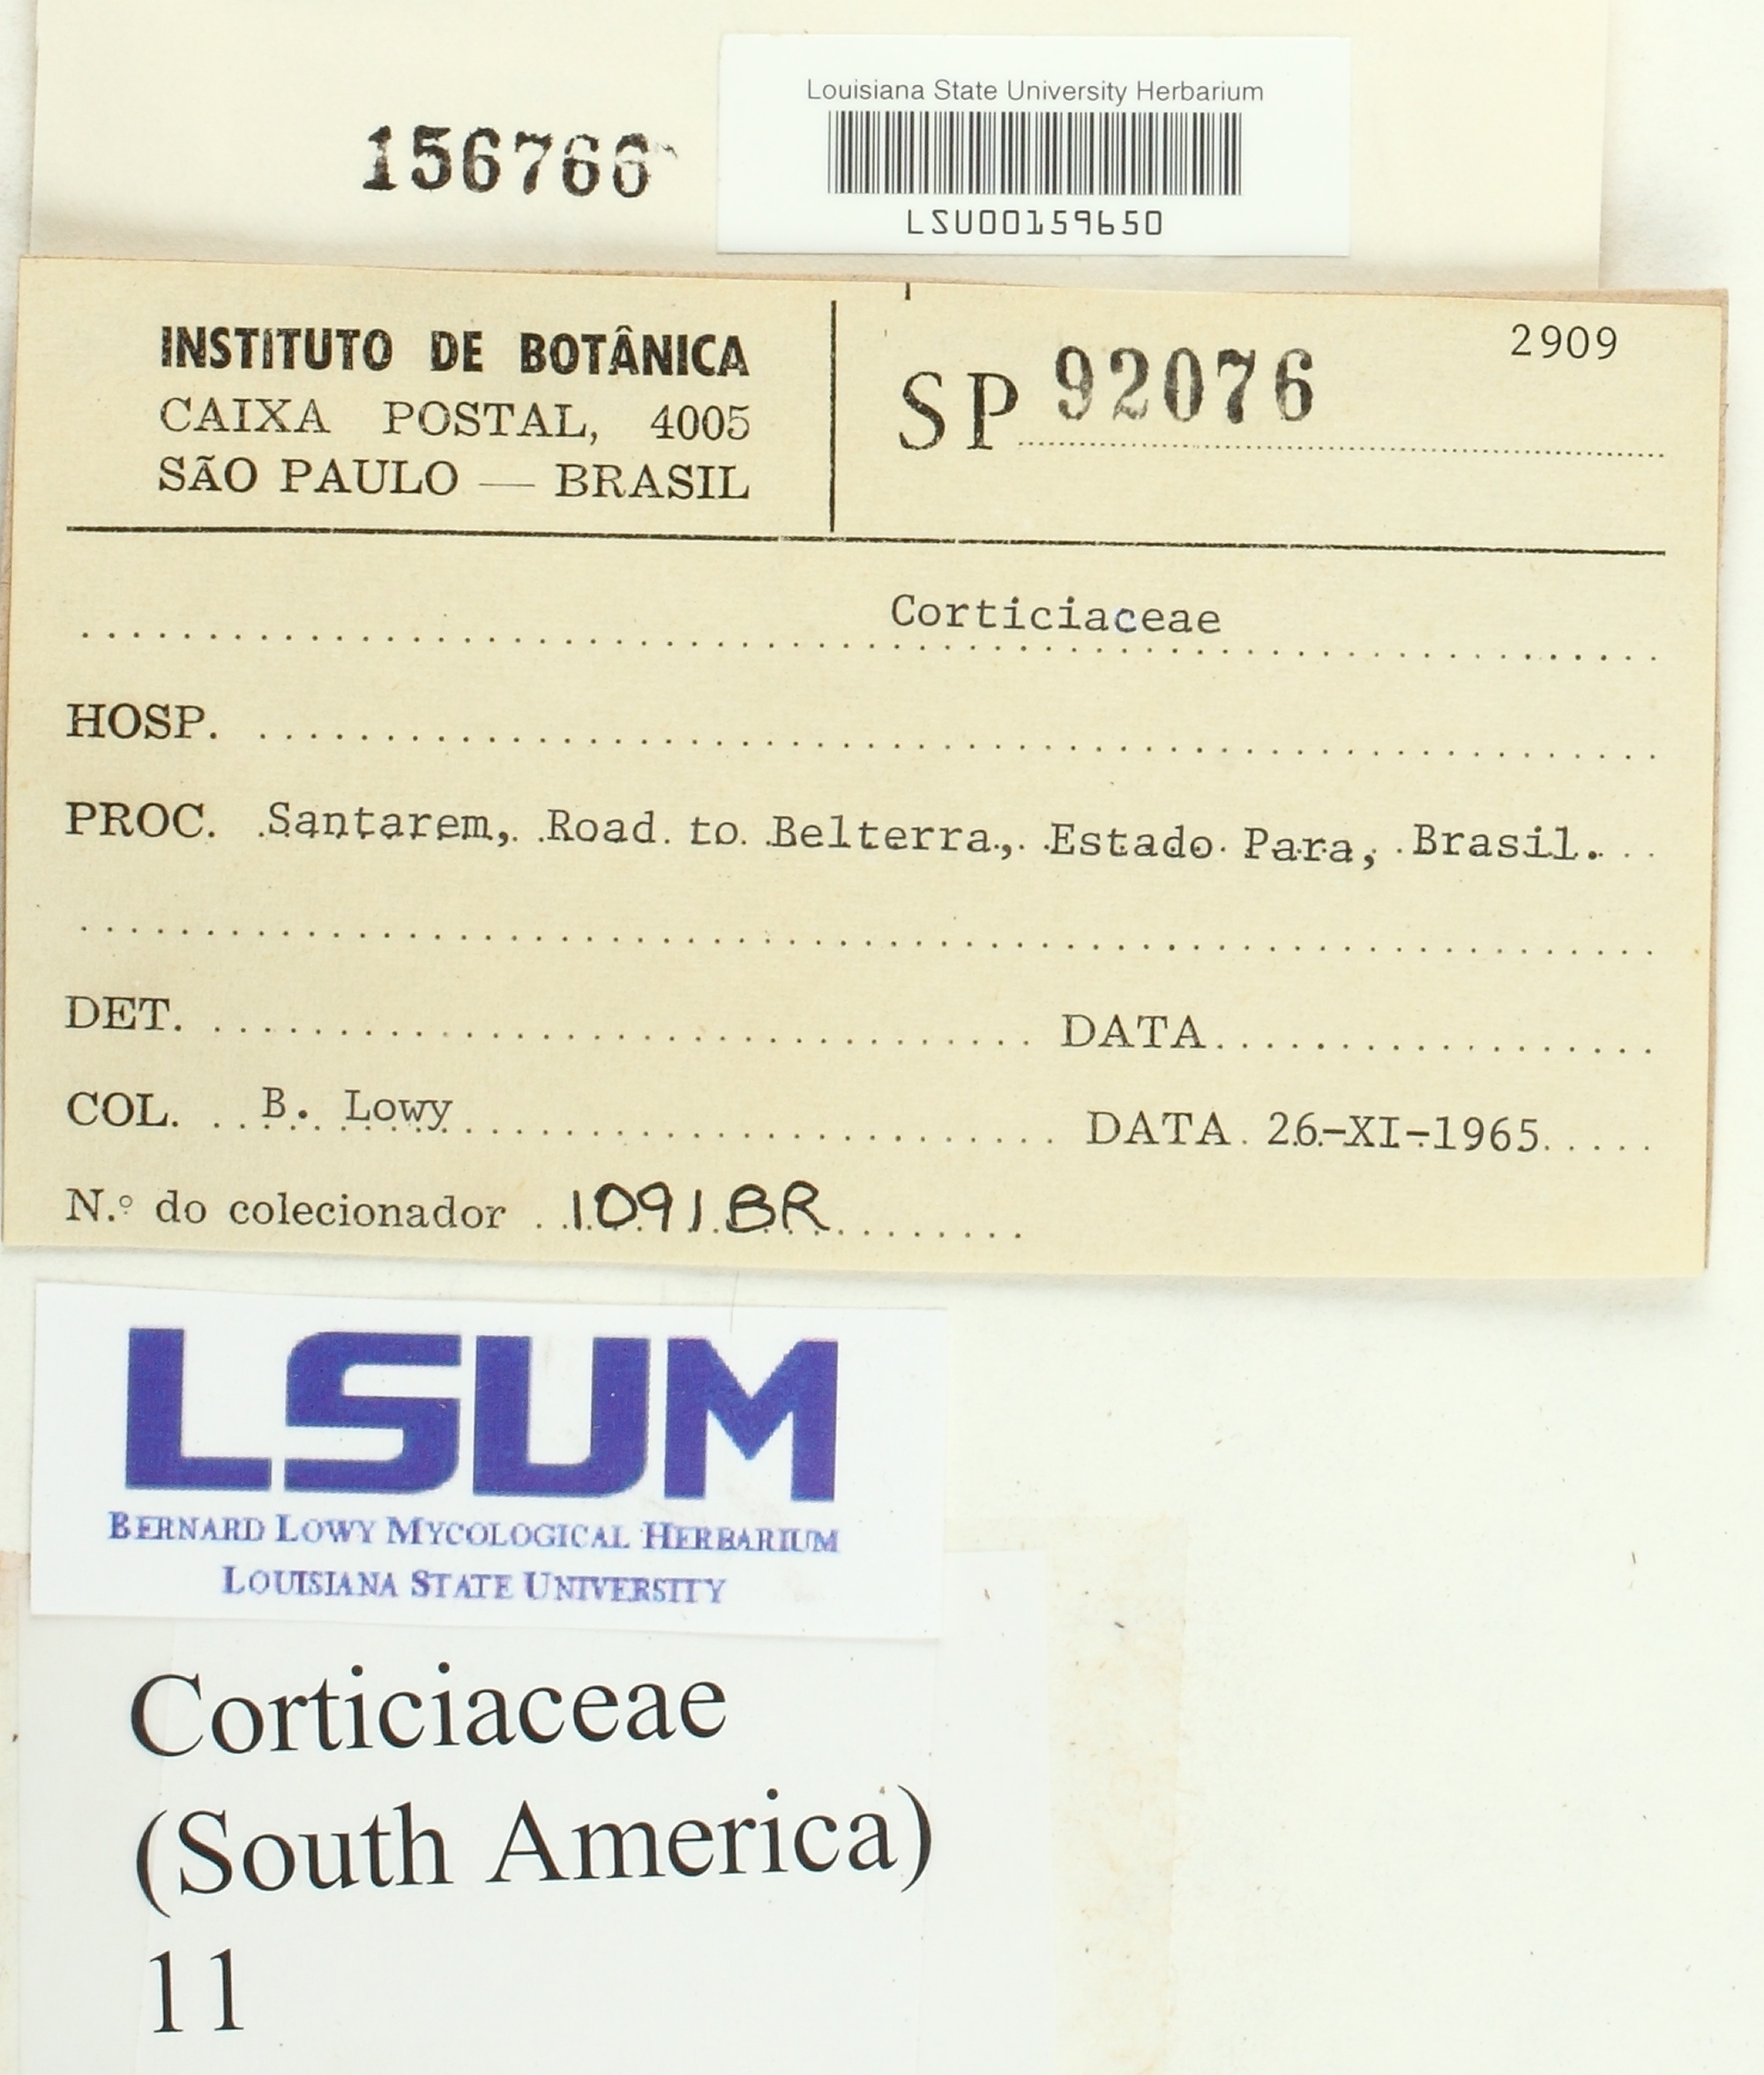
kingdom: Fungi
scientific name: Fungi
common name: Fungi
